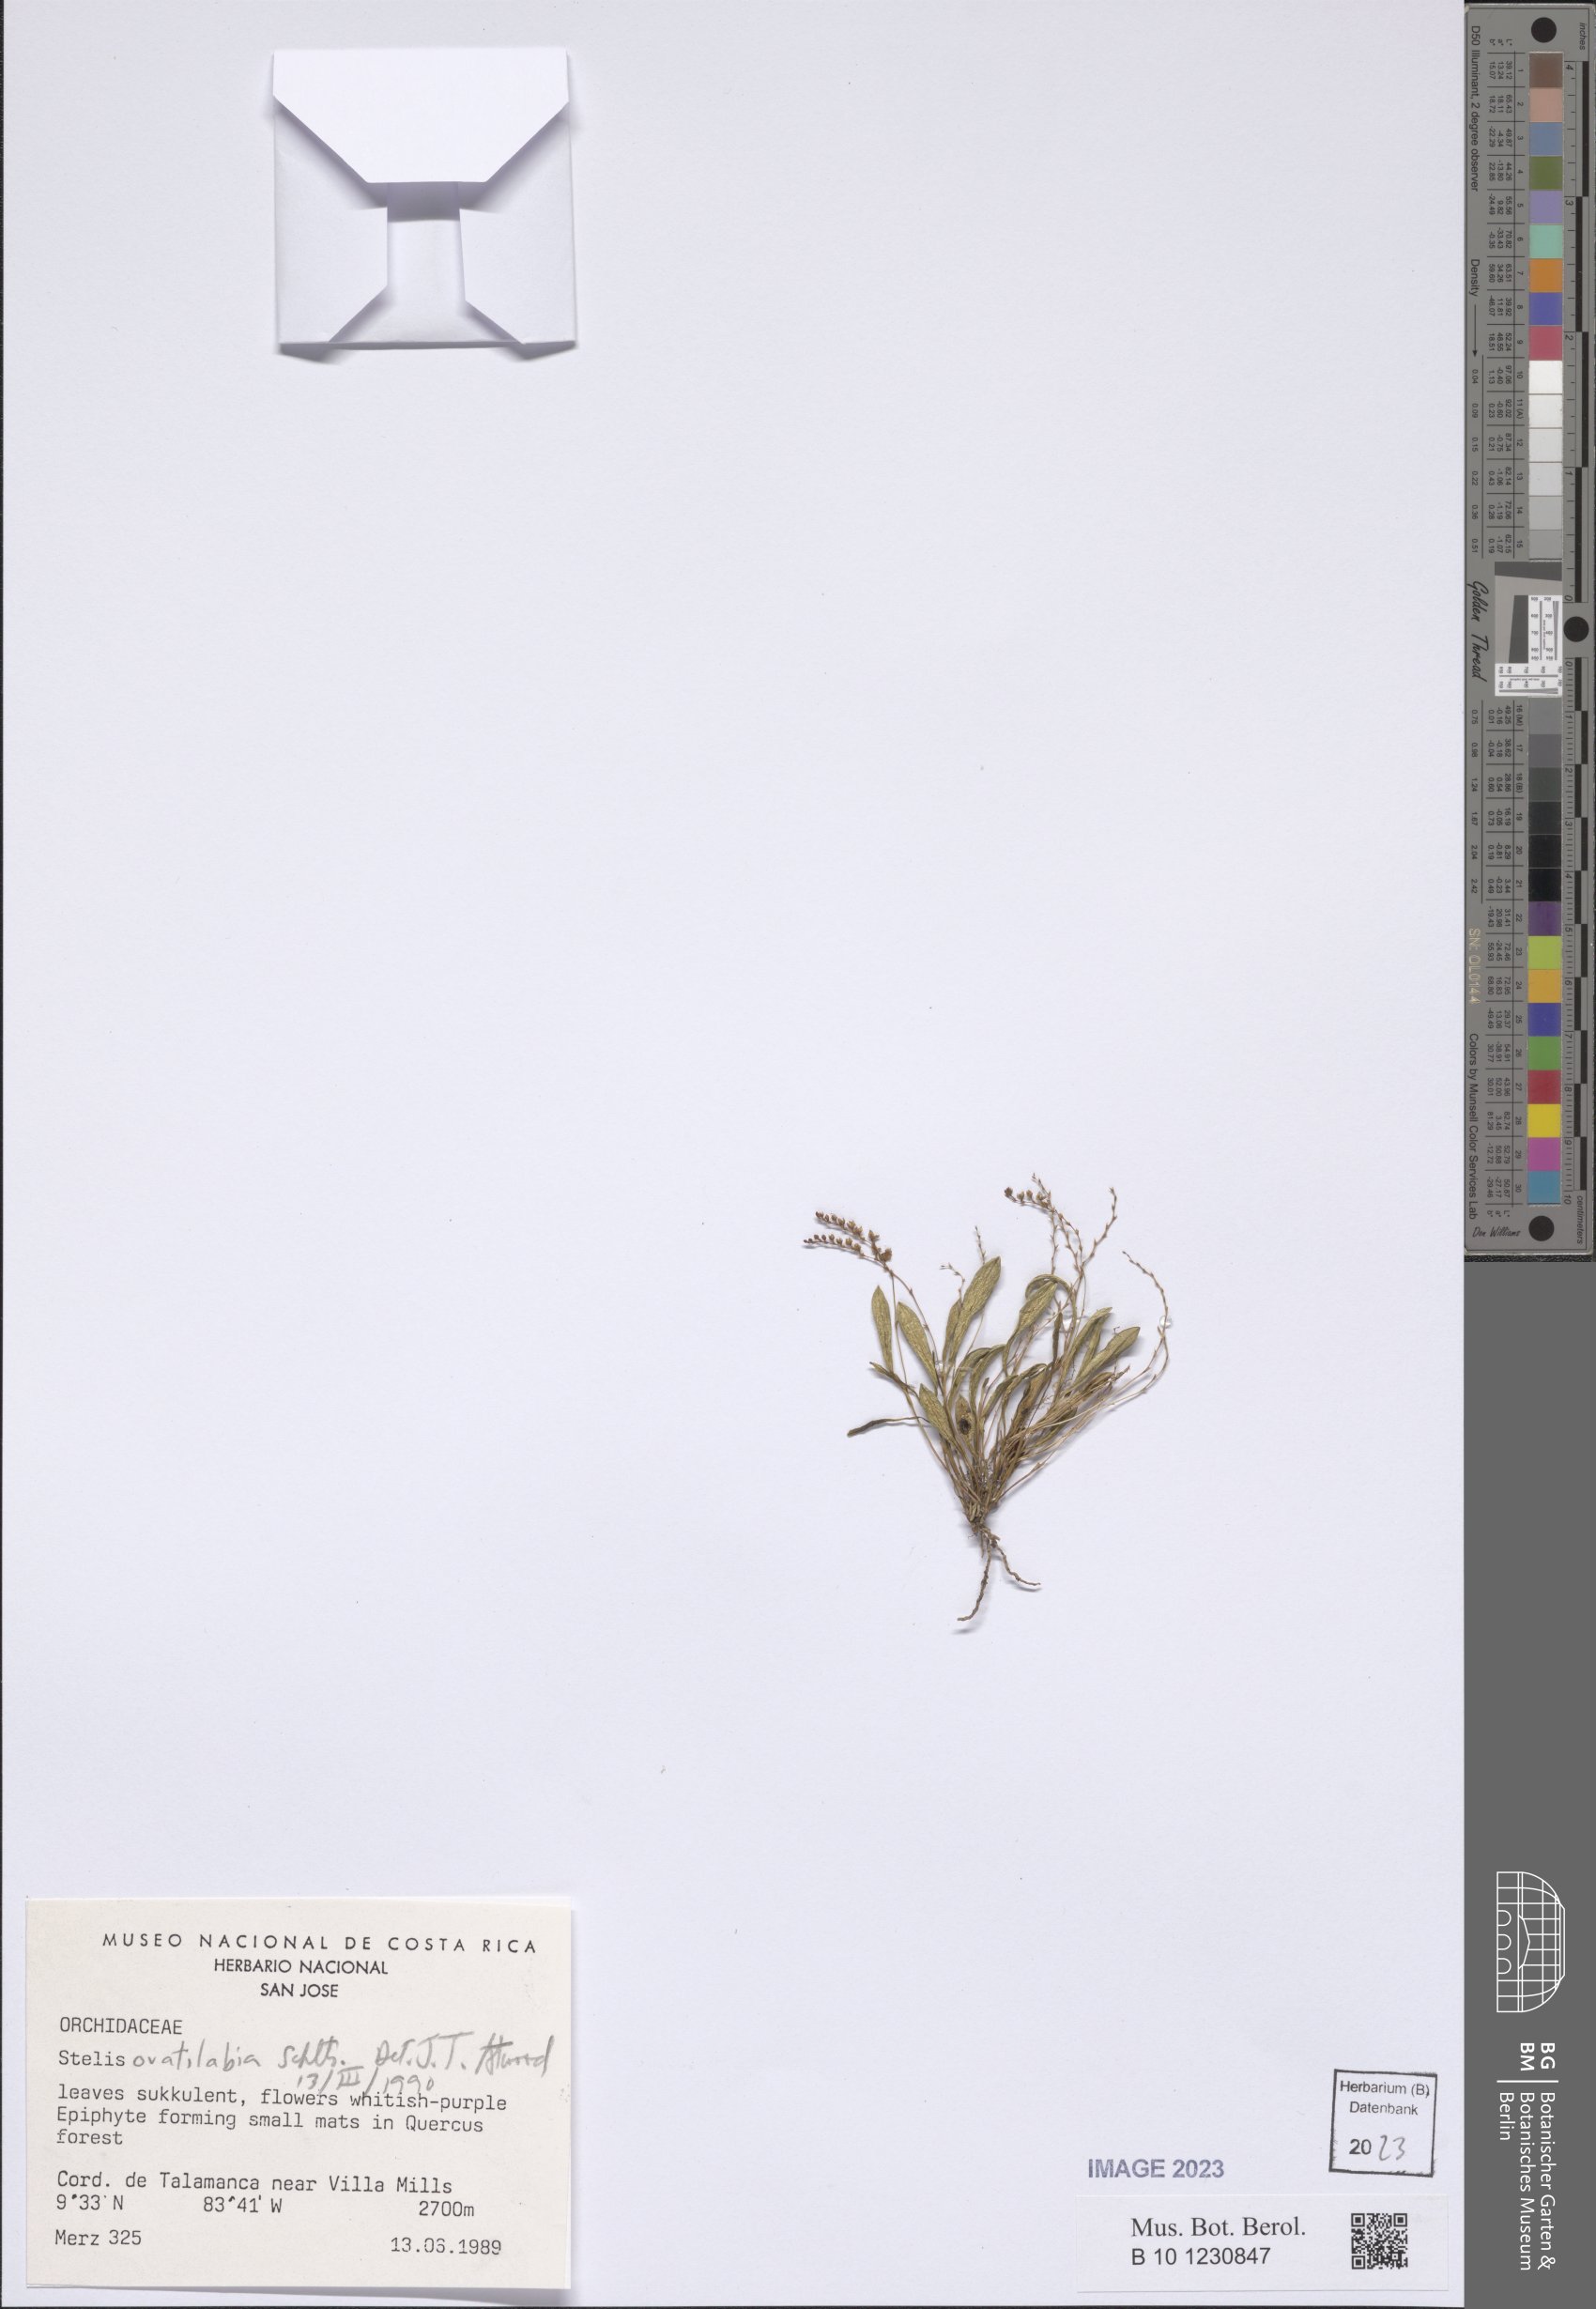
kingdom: Plantae
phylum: Tracheophyta
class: Liliopsida
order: Asparagales
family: Orchidaceae
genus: Stelis
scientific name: Stelis ovatilabia
